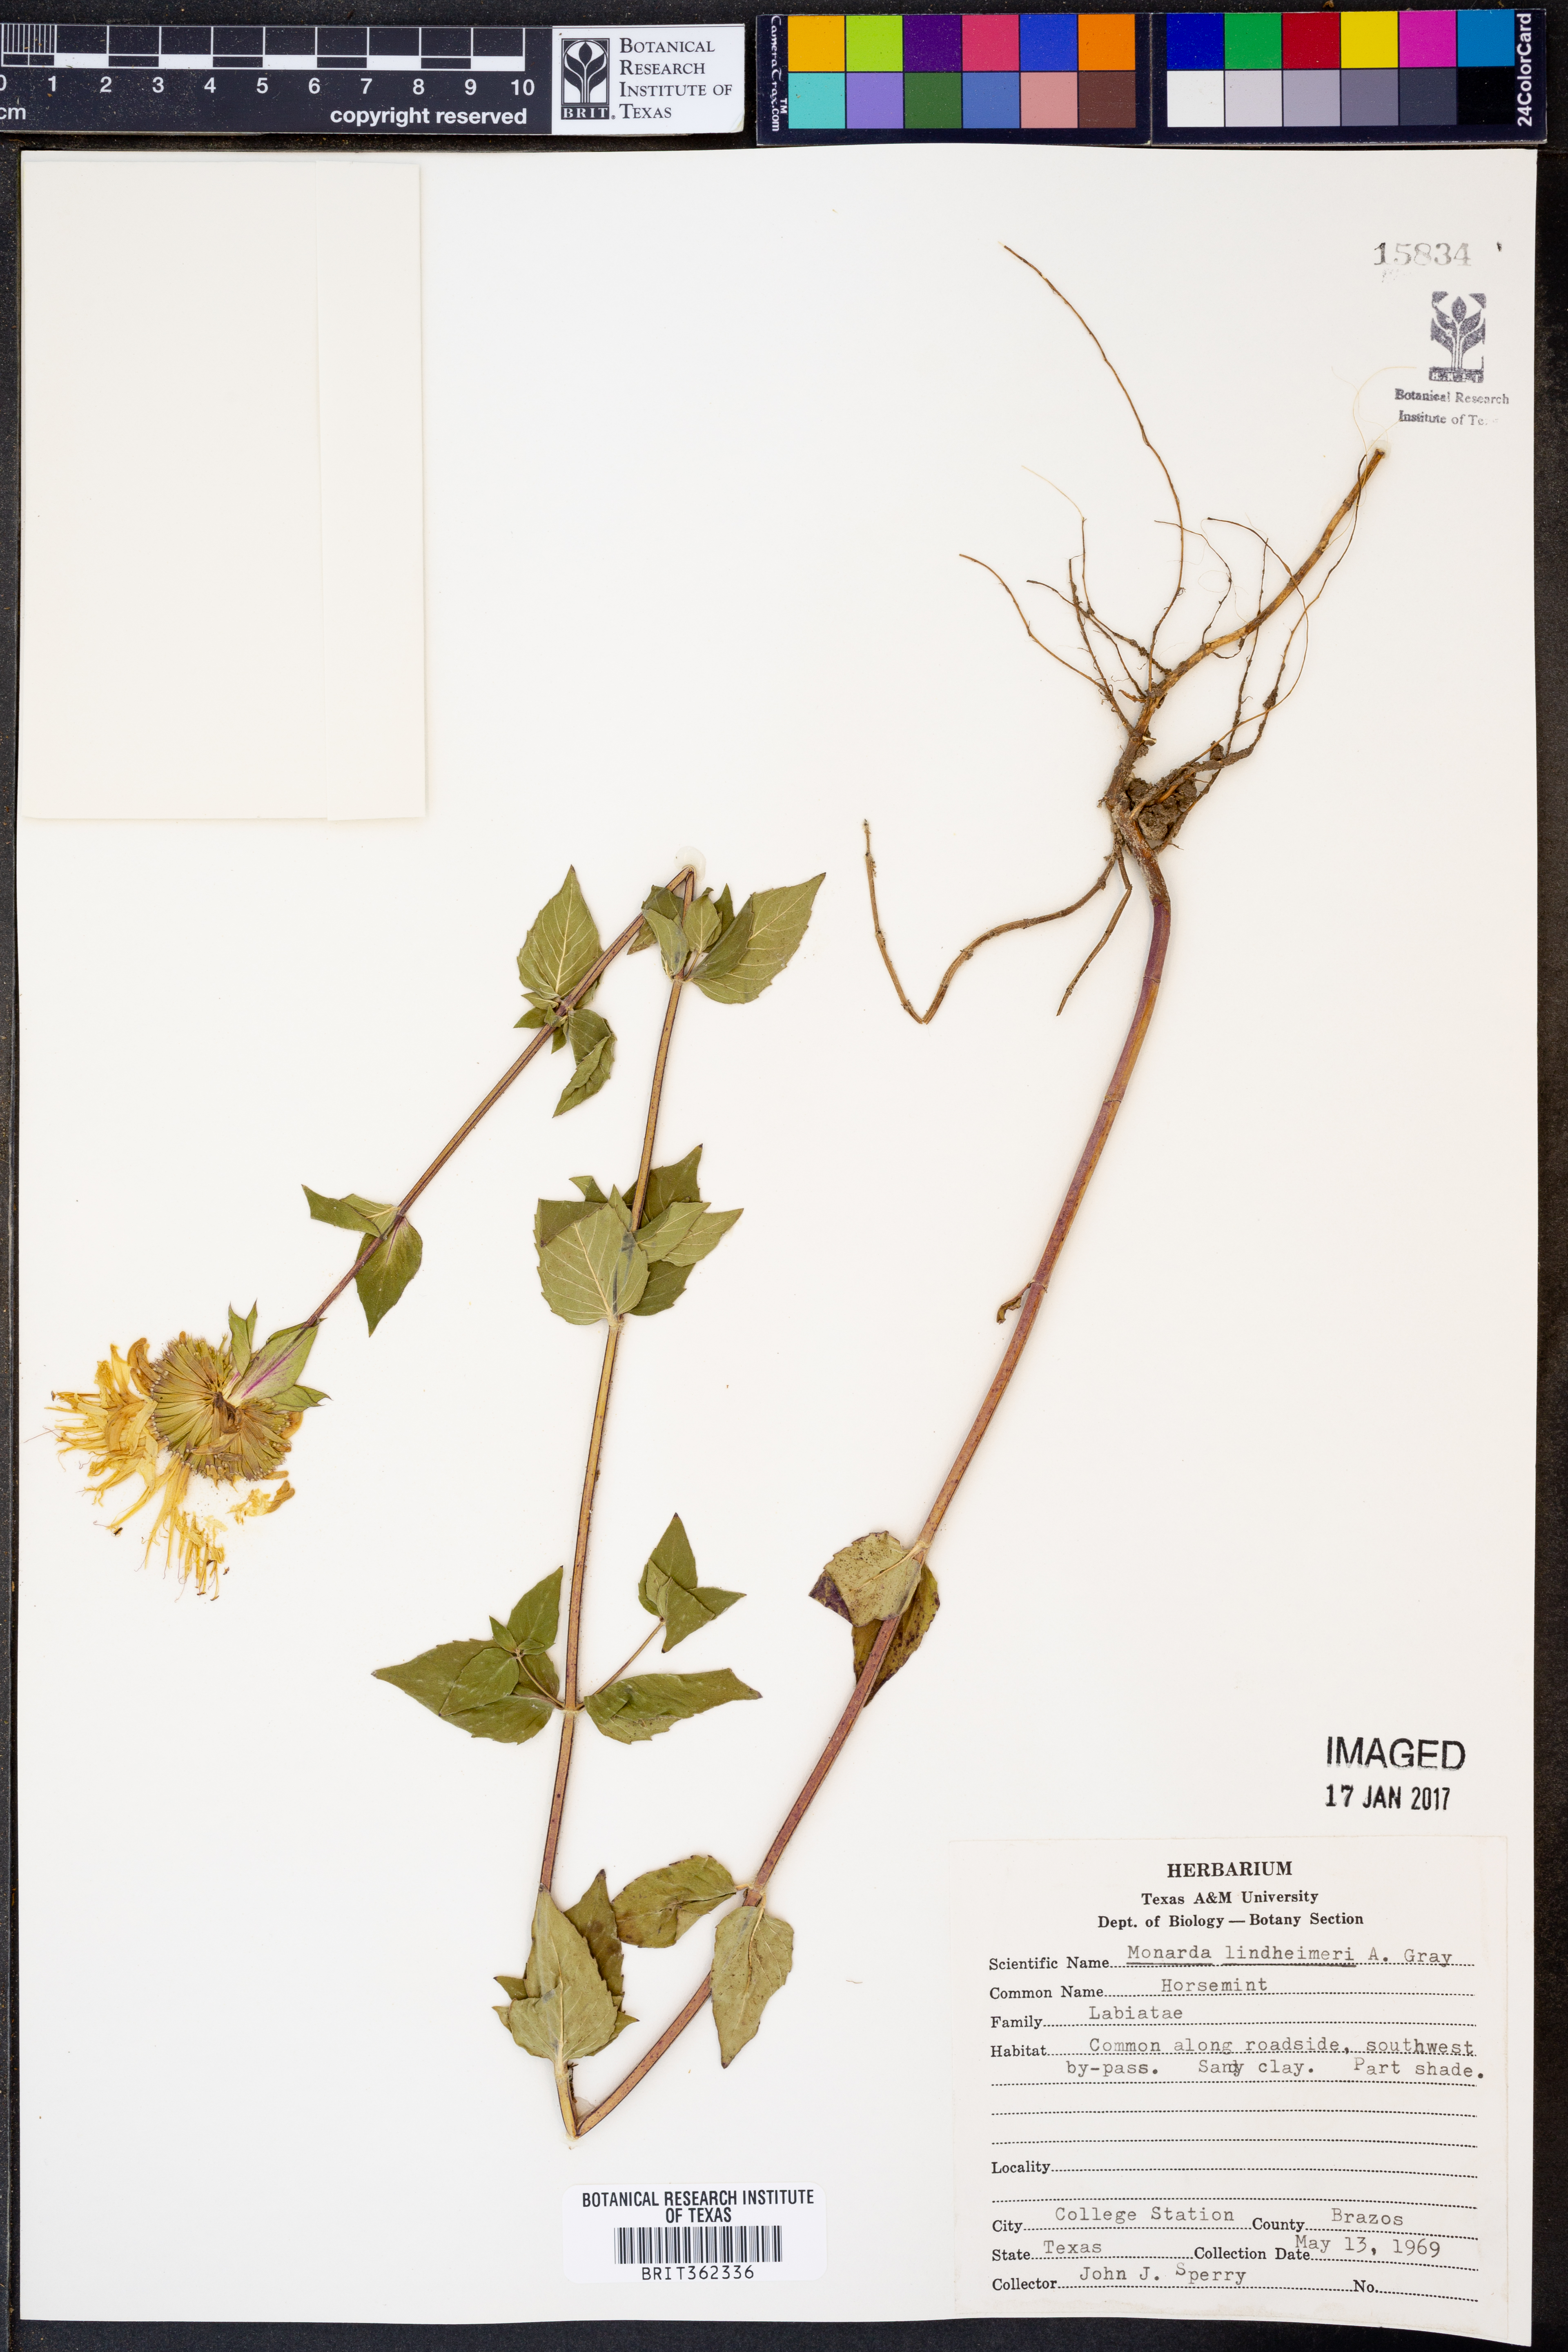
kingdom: Plantae
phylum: Tracheophyta
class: Magnoliopsida
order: Lamiales
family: Lamiaceae
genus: Monarda
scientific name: Monarda lindheimeri
